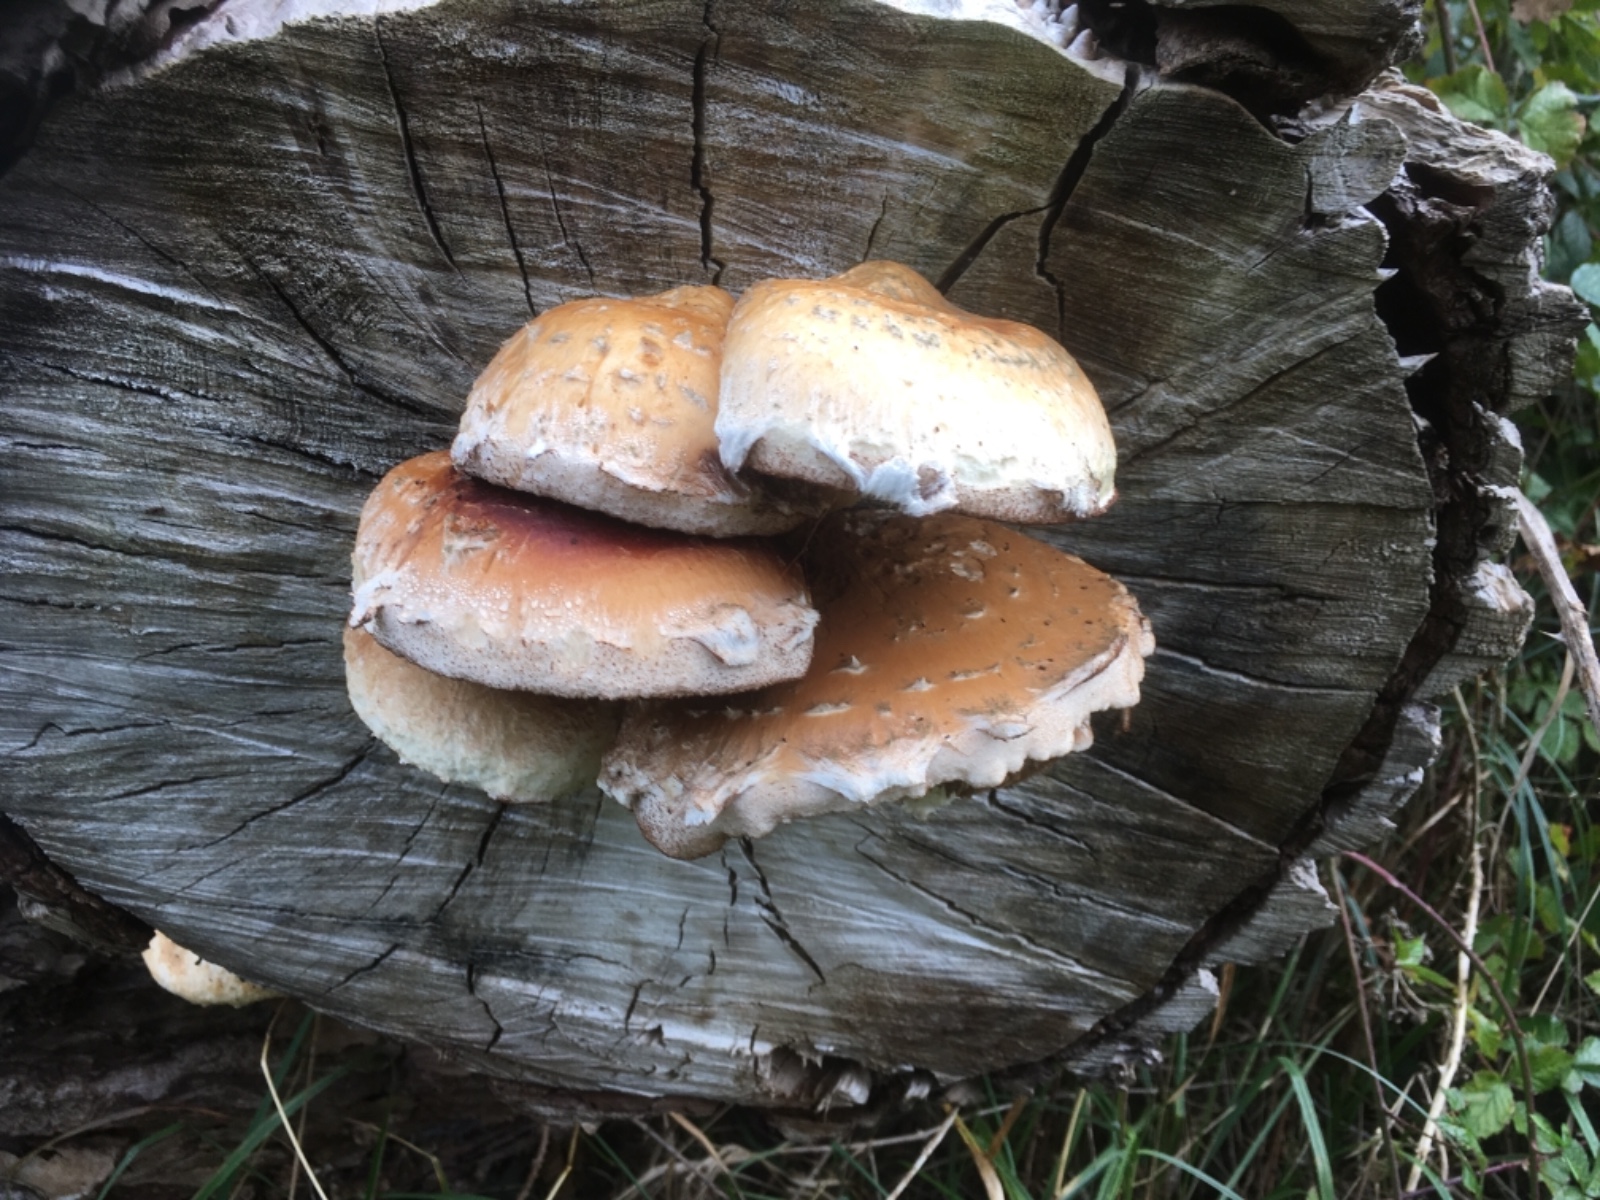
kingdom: Fungi
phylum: Basidiomycota
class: Agaricomycetes
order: Agaricales
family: Strophariaceae
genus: Pholiota
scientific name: Pholiota populnea
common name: poppel-kæmpeskælhat
